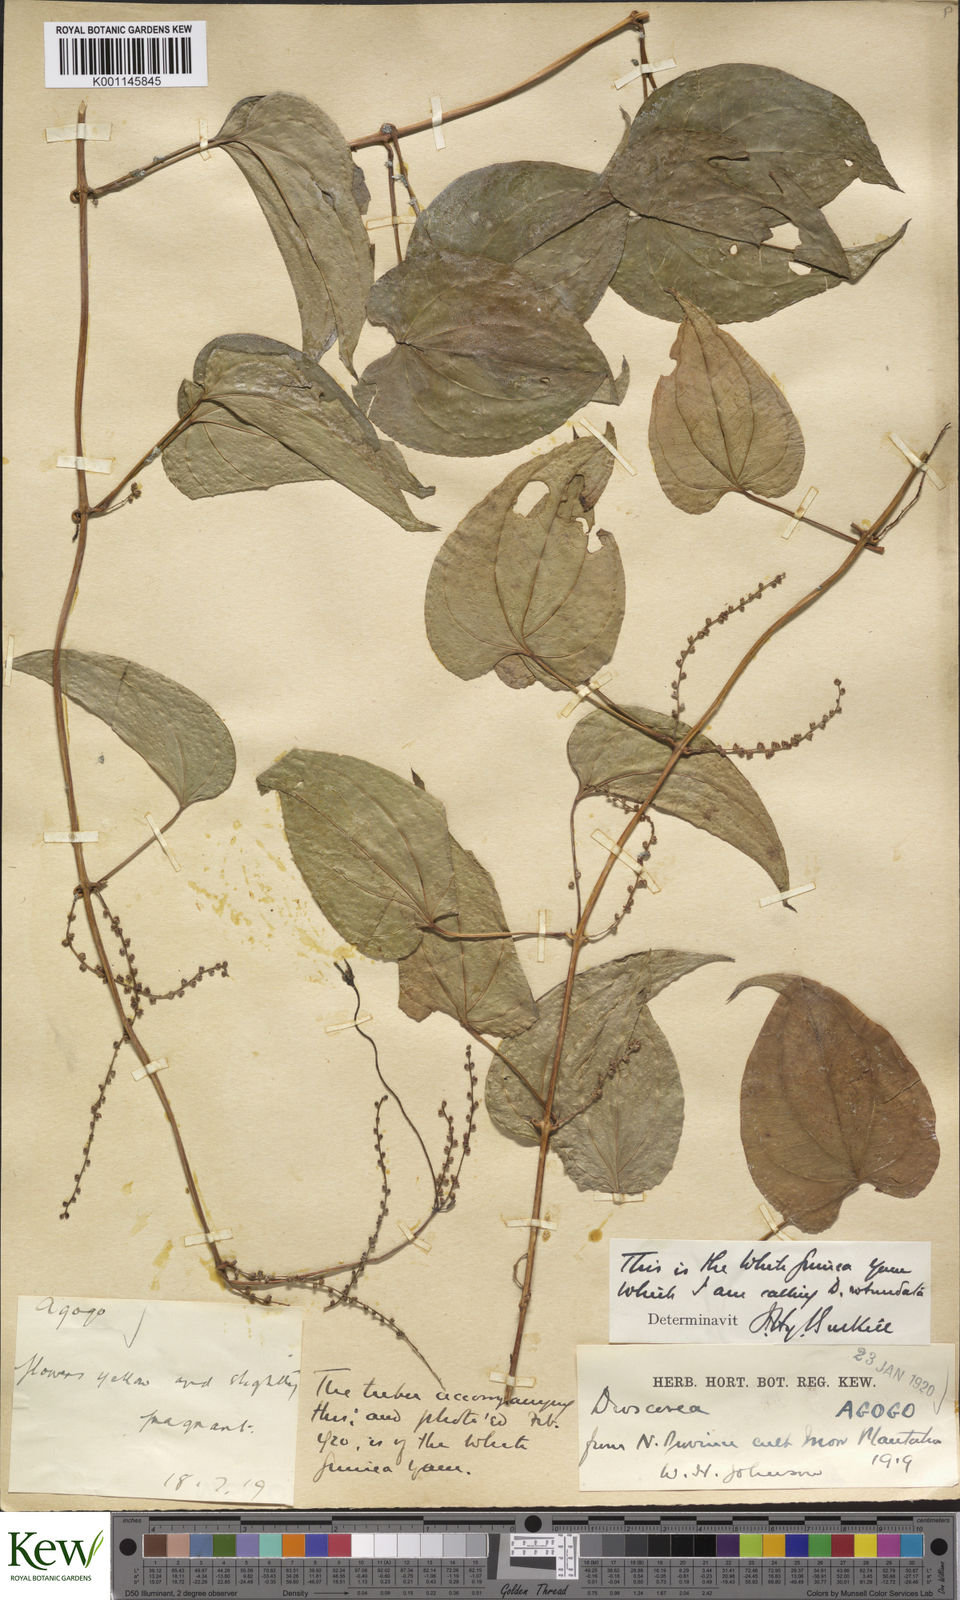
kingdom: Plantae
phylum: Tracheophyta
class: Liliopsida
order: Dioscoreales
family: Dioscoreaceae
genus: Dioscorea
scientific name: Dioscorea cayenensis
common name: Attoto yam
